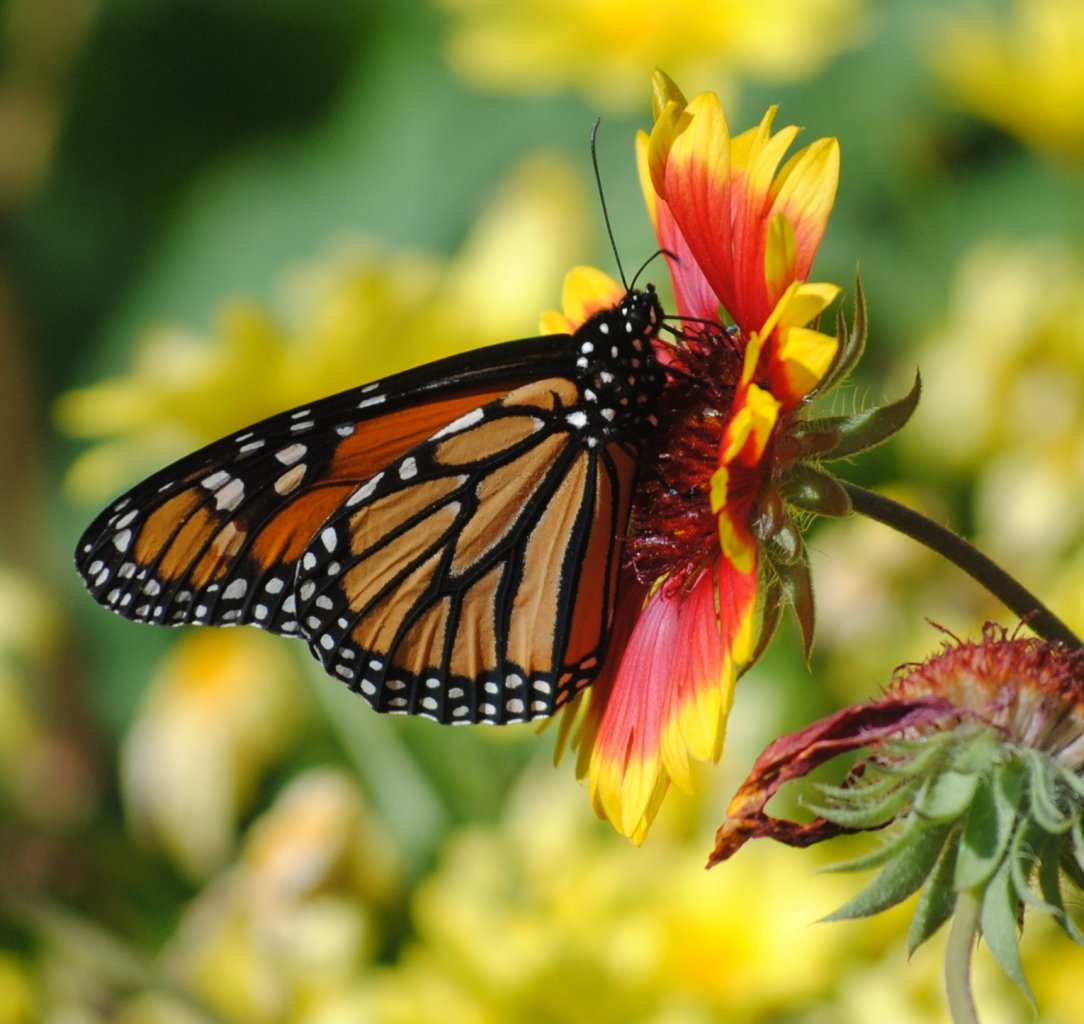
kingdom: Animalia
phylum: Arthropoda
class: Insecta
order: Lepidoptera
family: Nymphalidae
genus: Danaus
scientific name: Danaus plexippus
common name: Monarch
